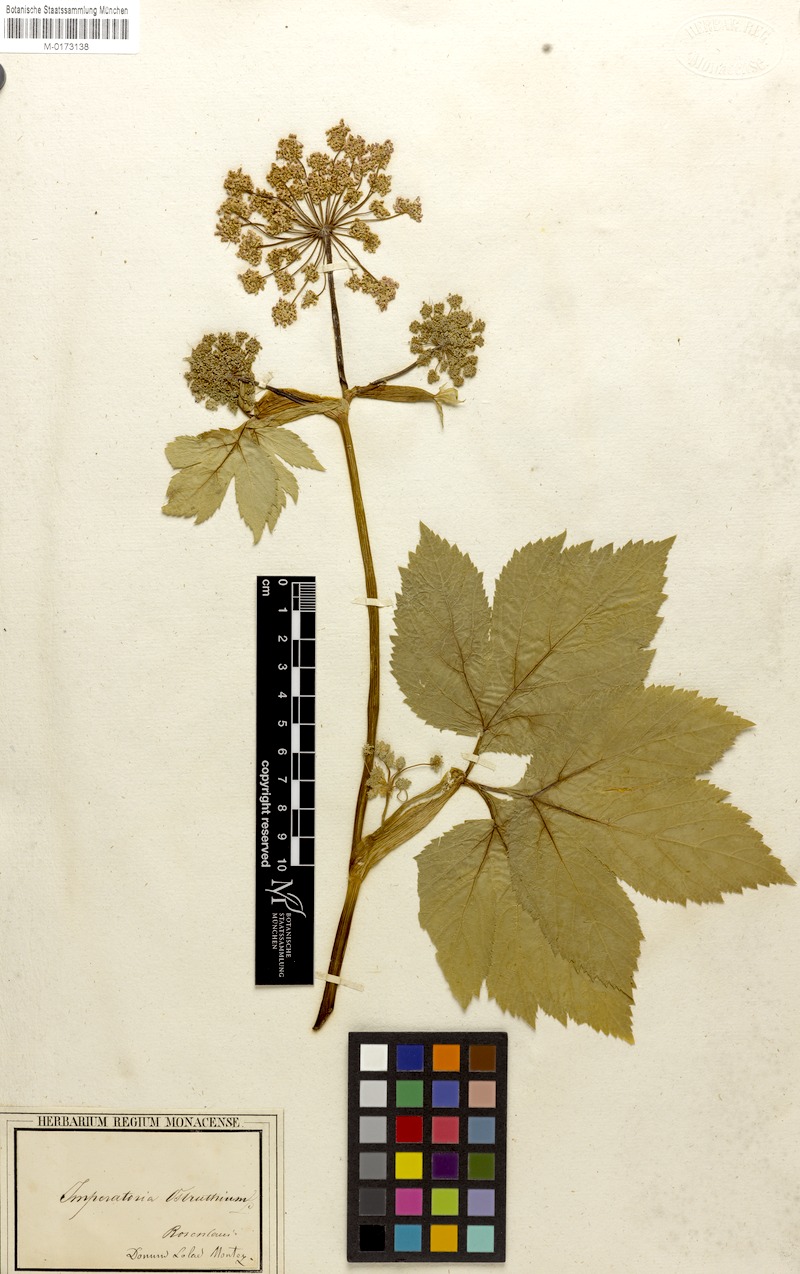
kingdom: Plantae
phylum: Tracheophyta
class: Magnoliopsida
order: Apiales
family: Apiaceae
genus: Imperatoria
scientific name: Imperatoria ostruthium
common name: Masterwort
